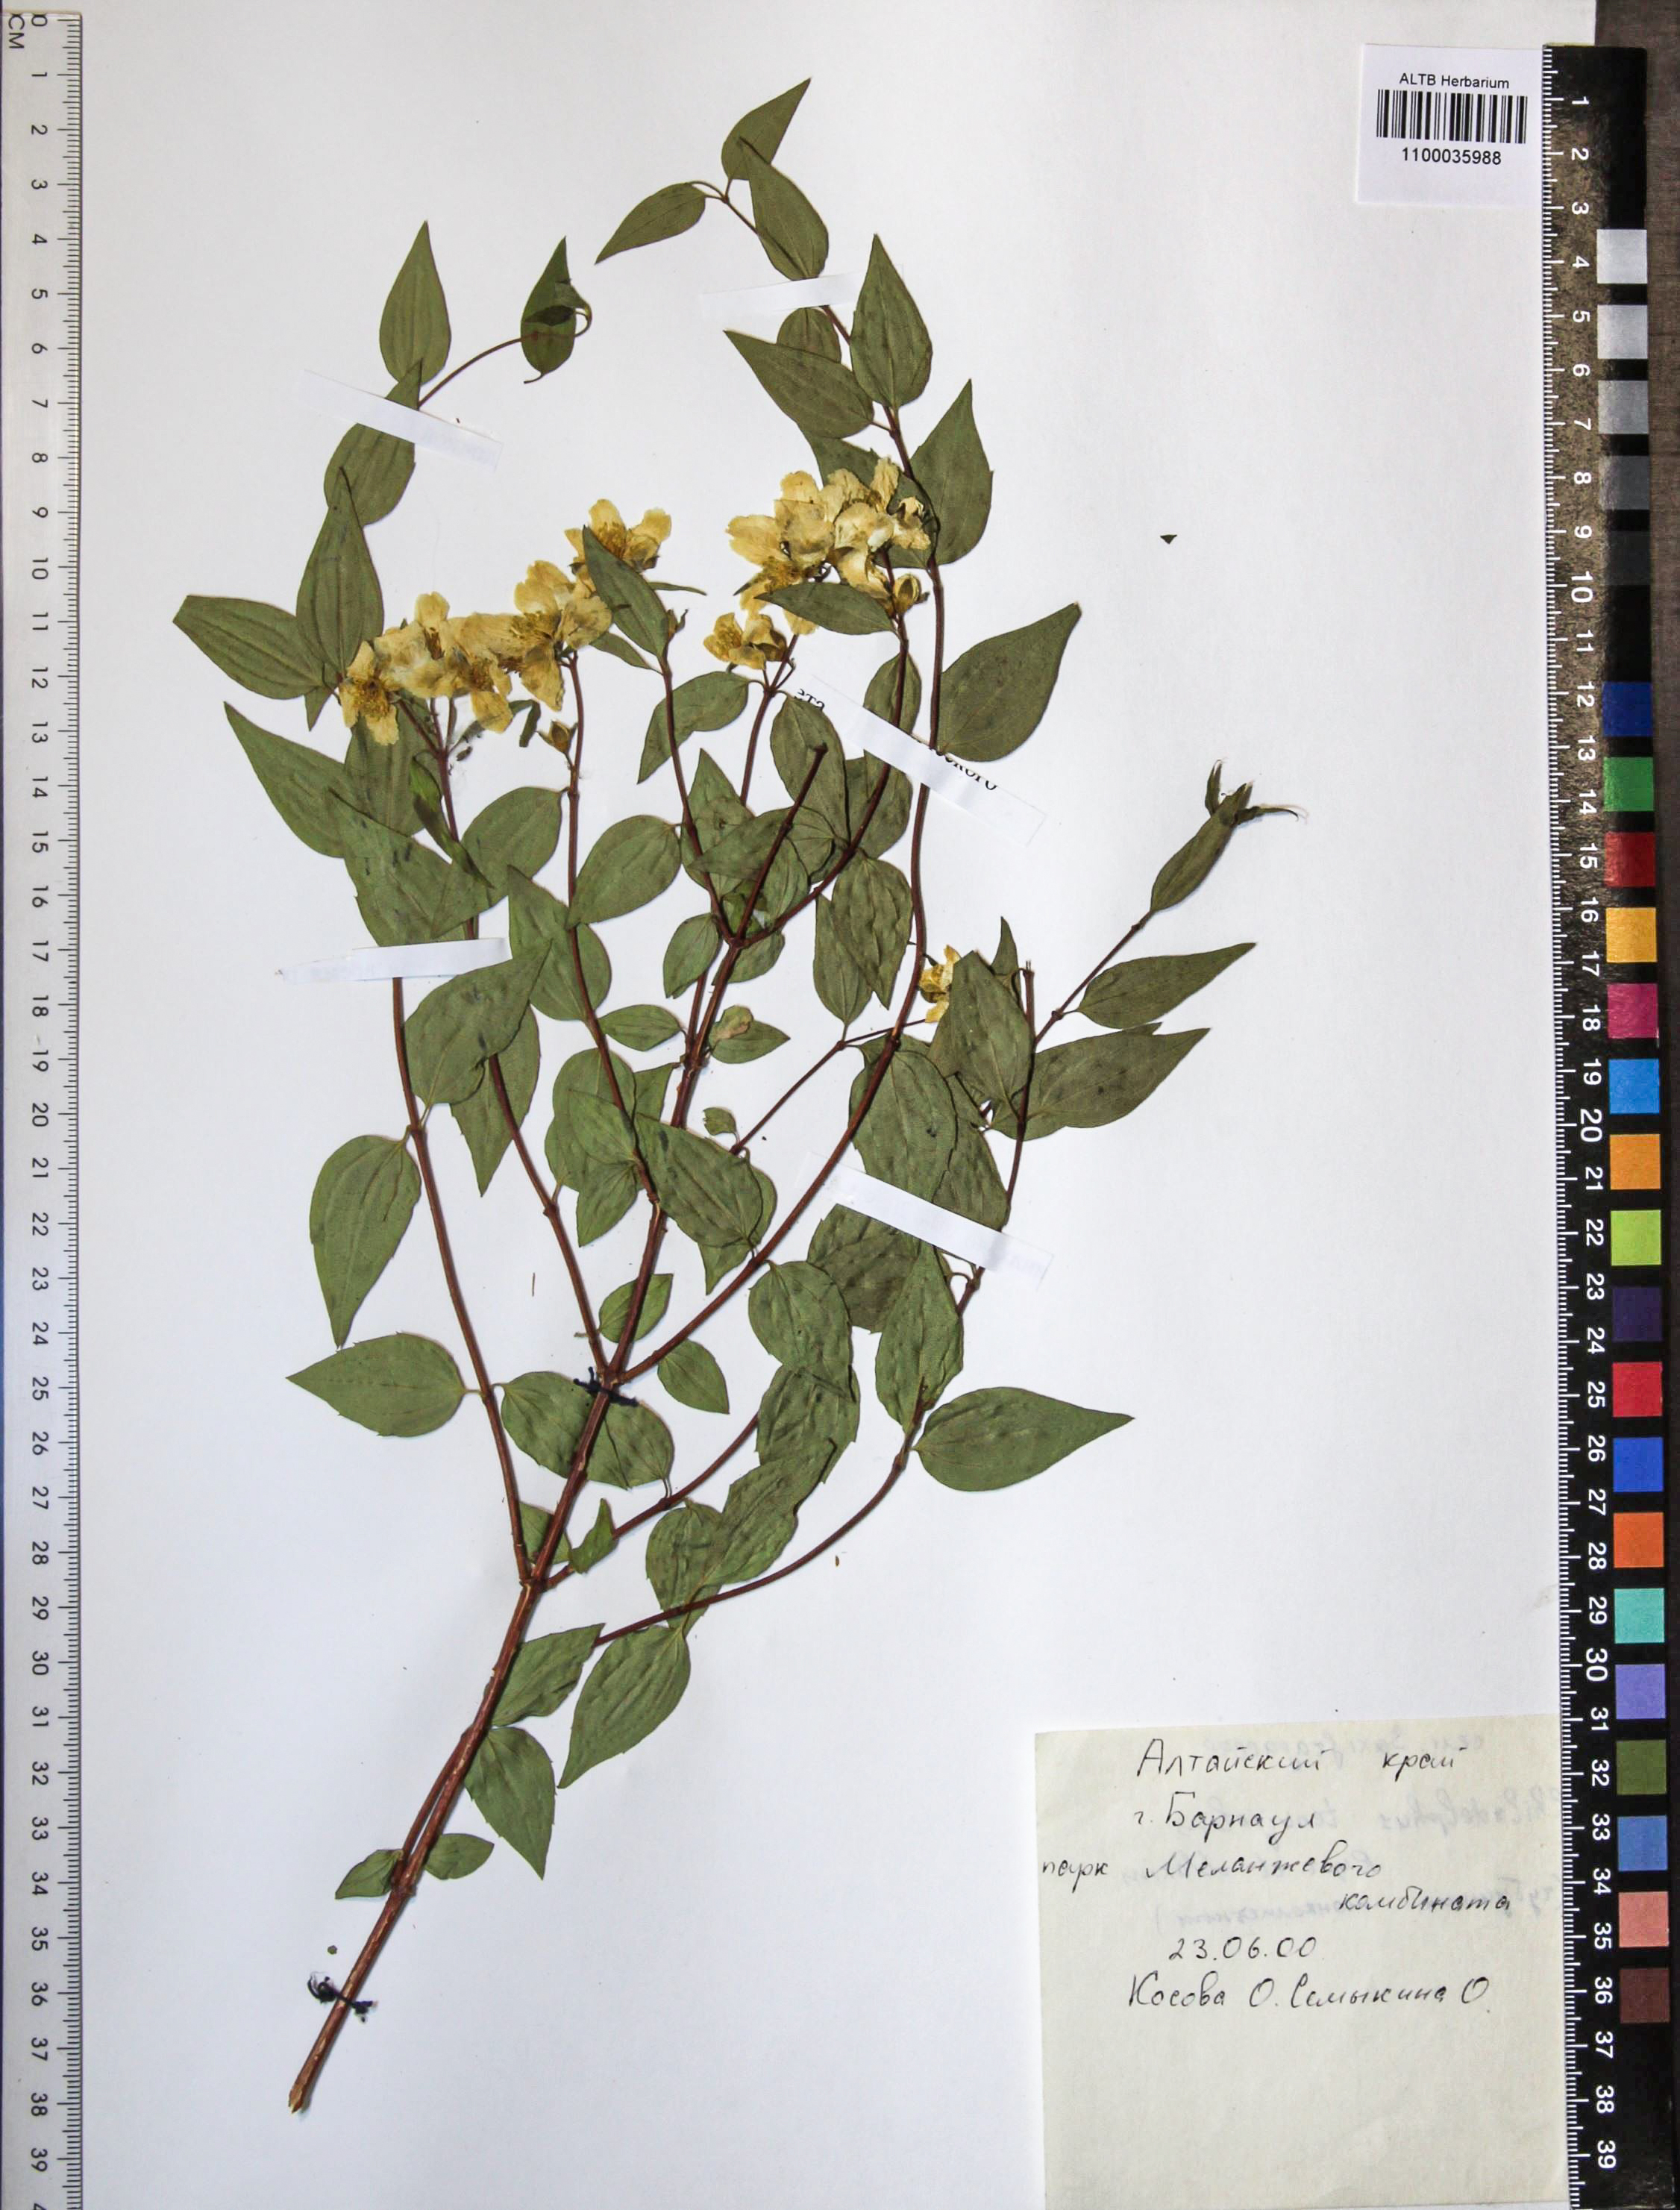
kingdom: Plantae
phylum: Tracheophyta
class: Magnoliopsida
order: Rosales
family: Rosaceae
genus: Malus
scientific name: Malus baccata
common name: Siberian crab
